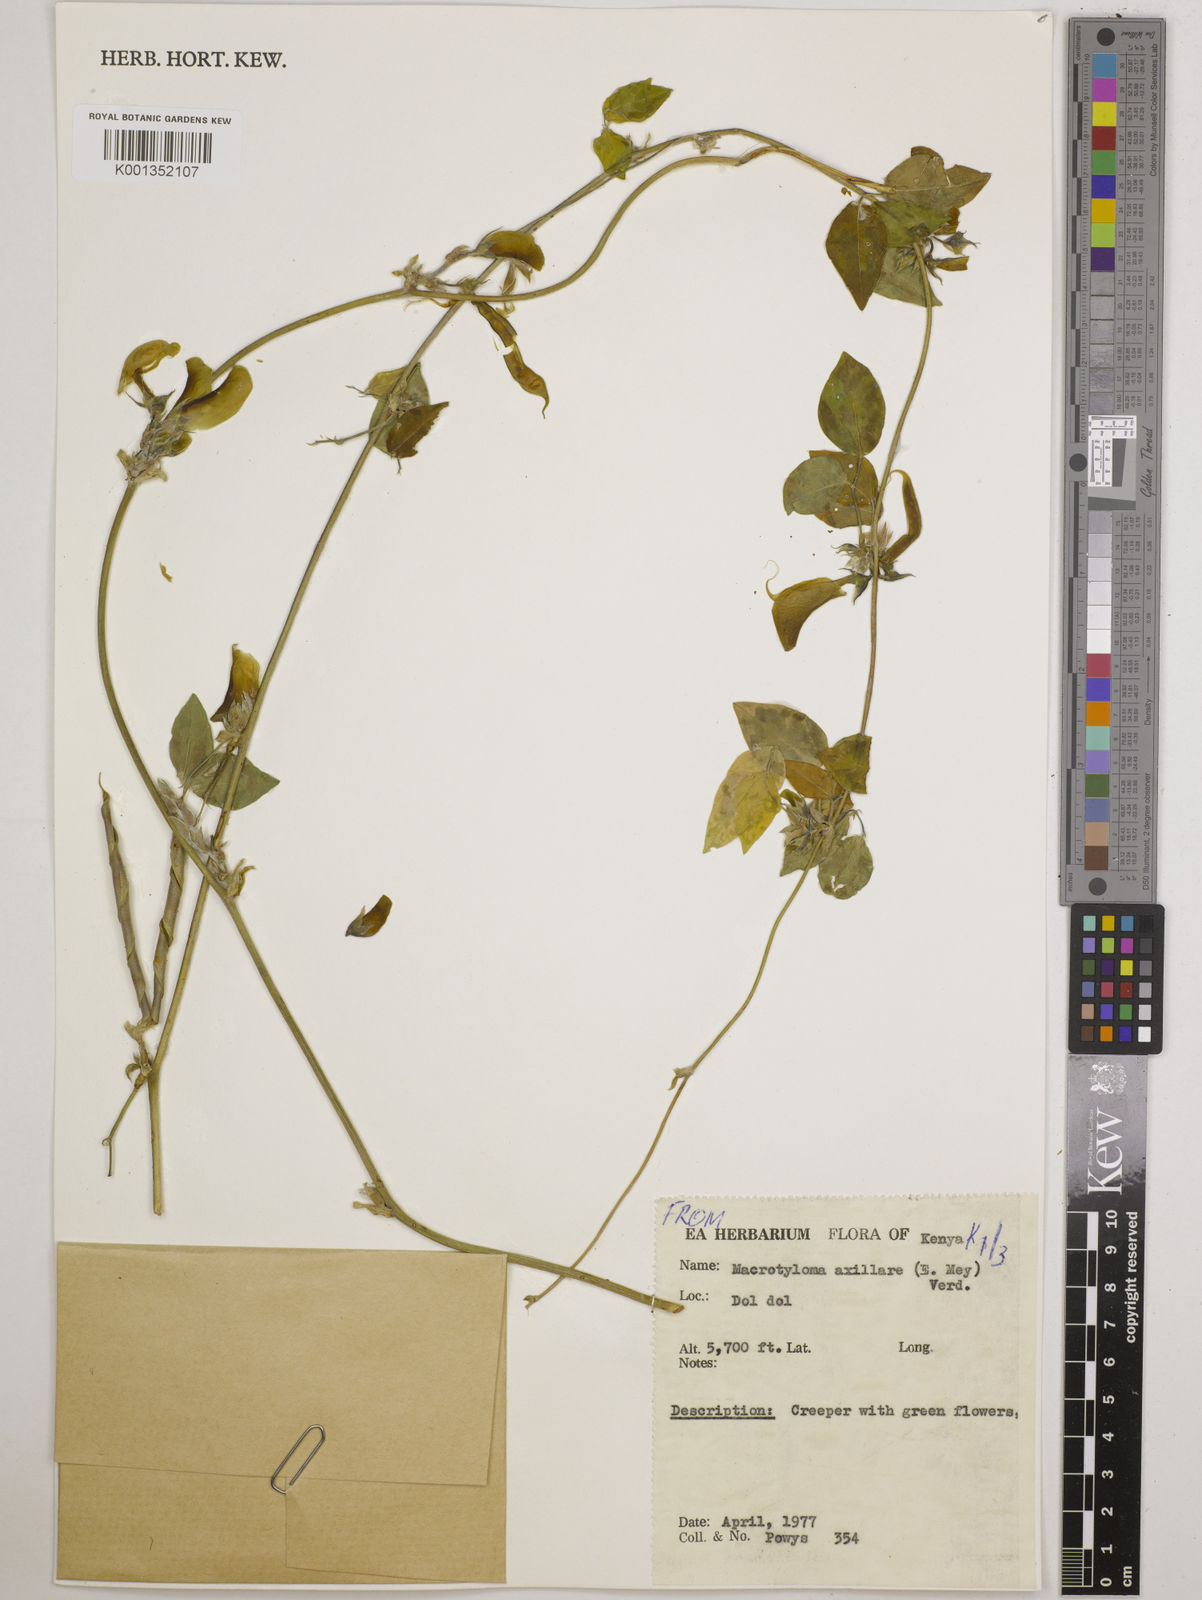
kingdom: Plantae
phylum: Tracheophyta
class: Magnoliopsida
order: Fabales
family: Fabaceae
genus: Macrotyloma
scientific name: Macrotyloma axillare
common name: Perennial horsegram
